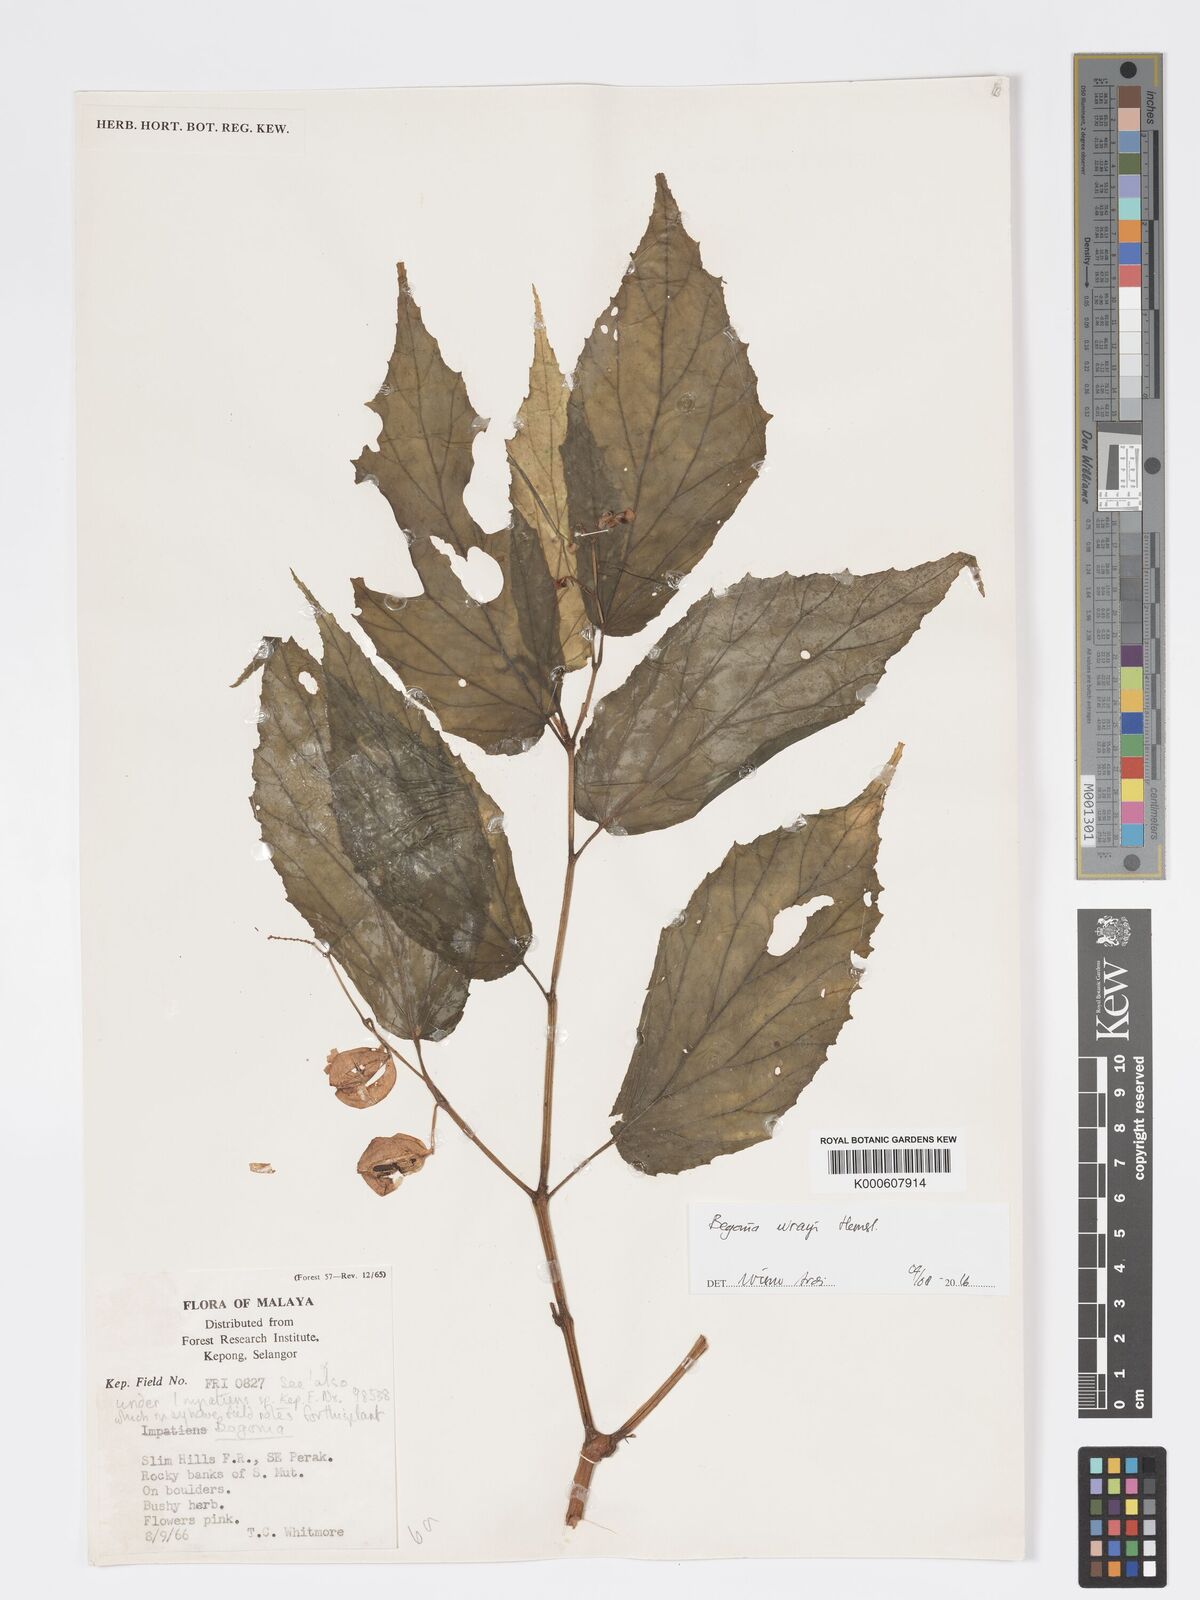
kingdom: Plantae
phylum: Tracheophyta
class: Magnoliopsida
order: Cucurbitales
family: Begoniaceae
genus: Begonia
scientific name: Begonia wrayi
